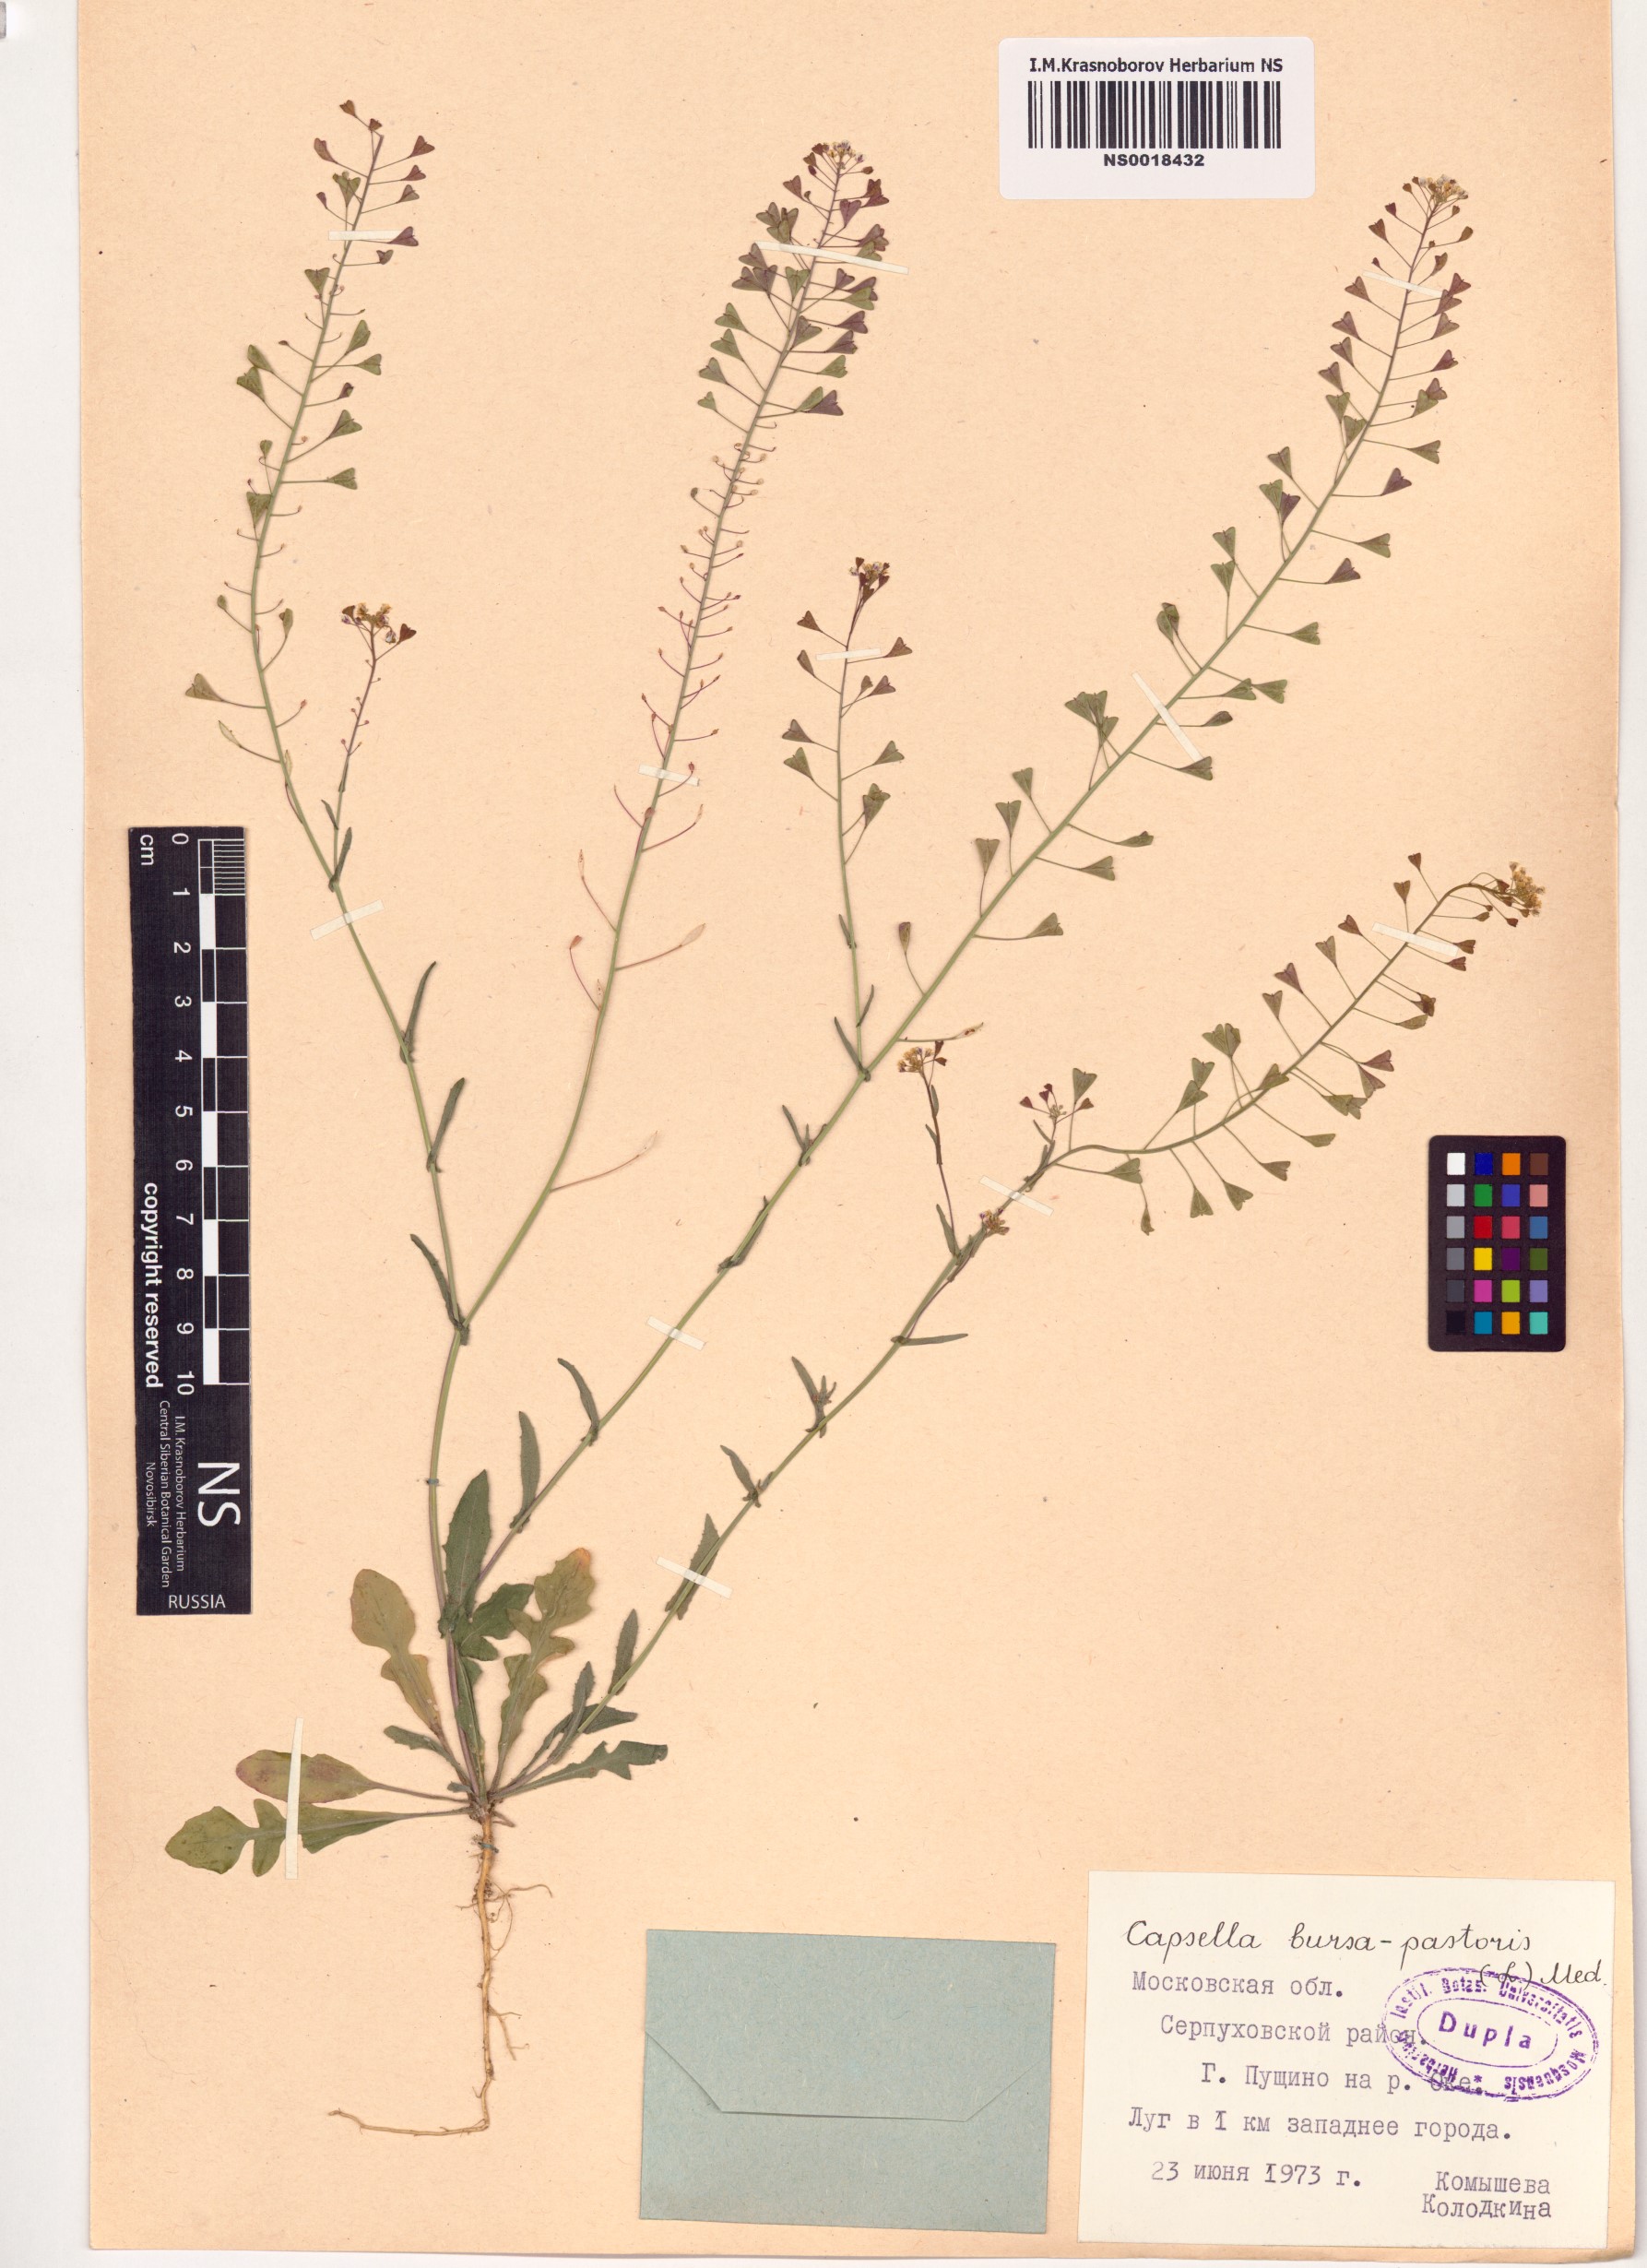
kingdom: Plantae
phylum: Tracheophyta
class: Magnoliopsida
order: Brassicales
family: Brassicaceae
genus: Capsella
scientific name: Capsella bursa-pastoris
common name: Shepherd's purse
